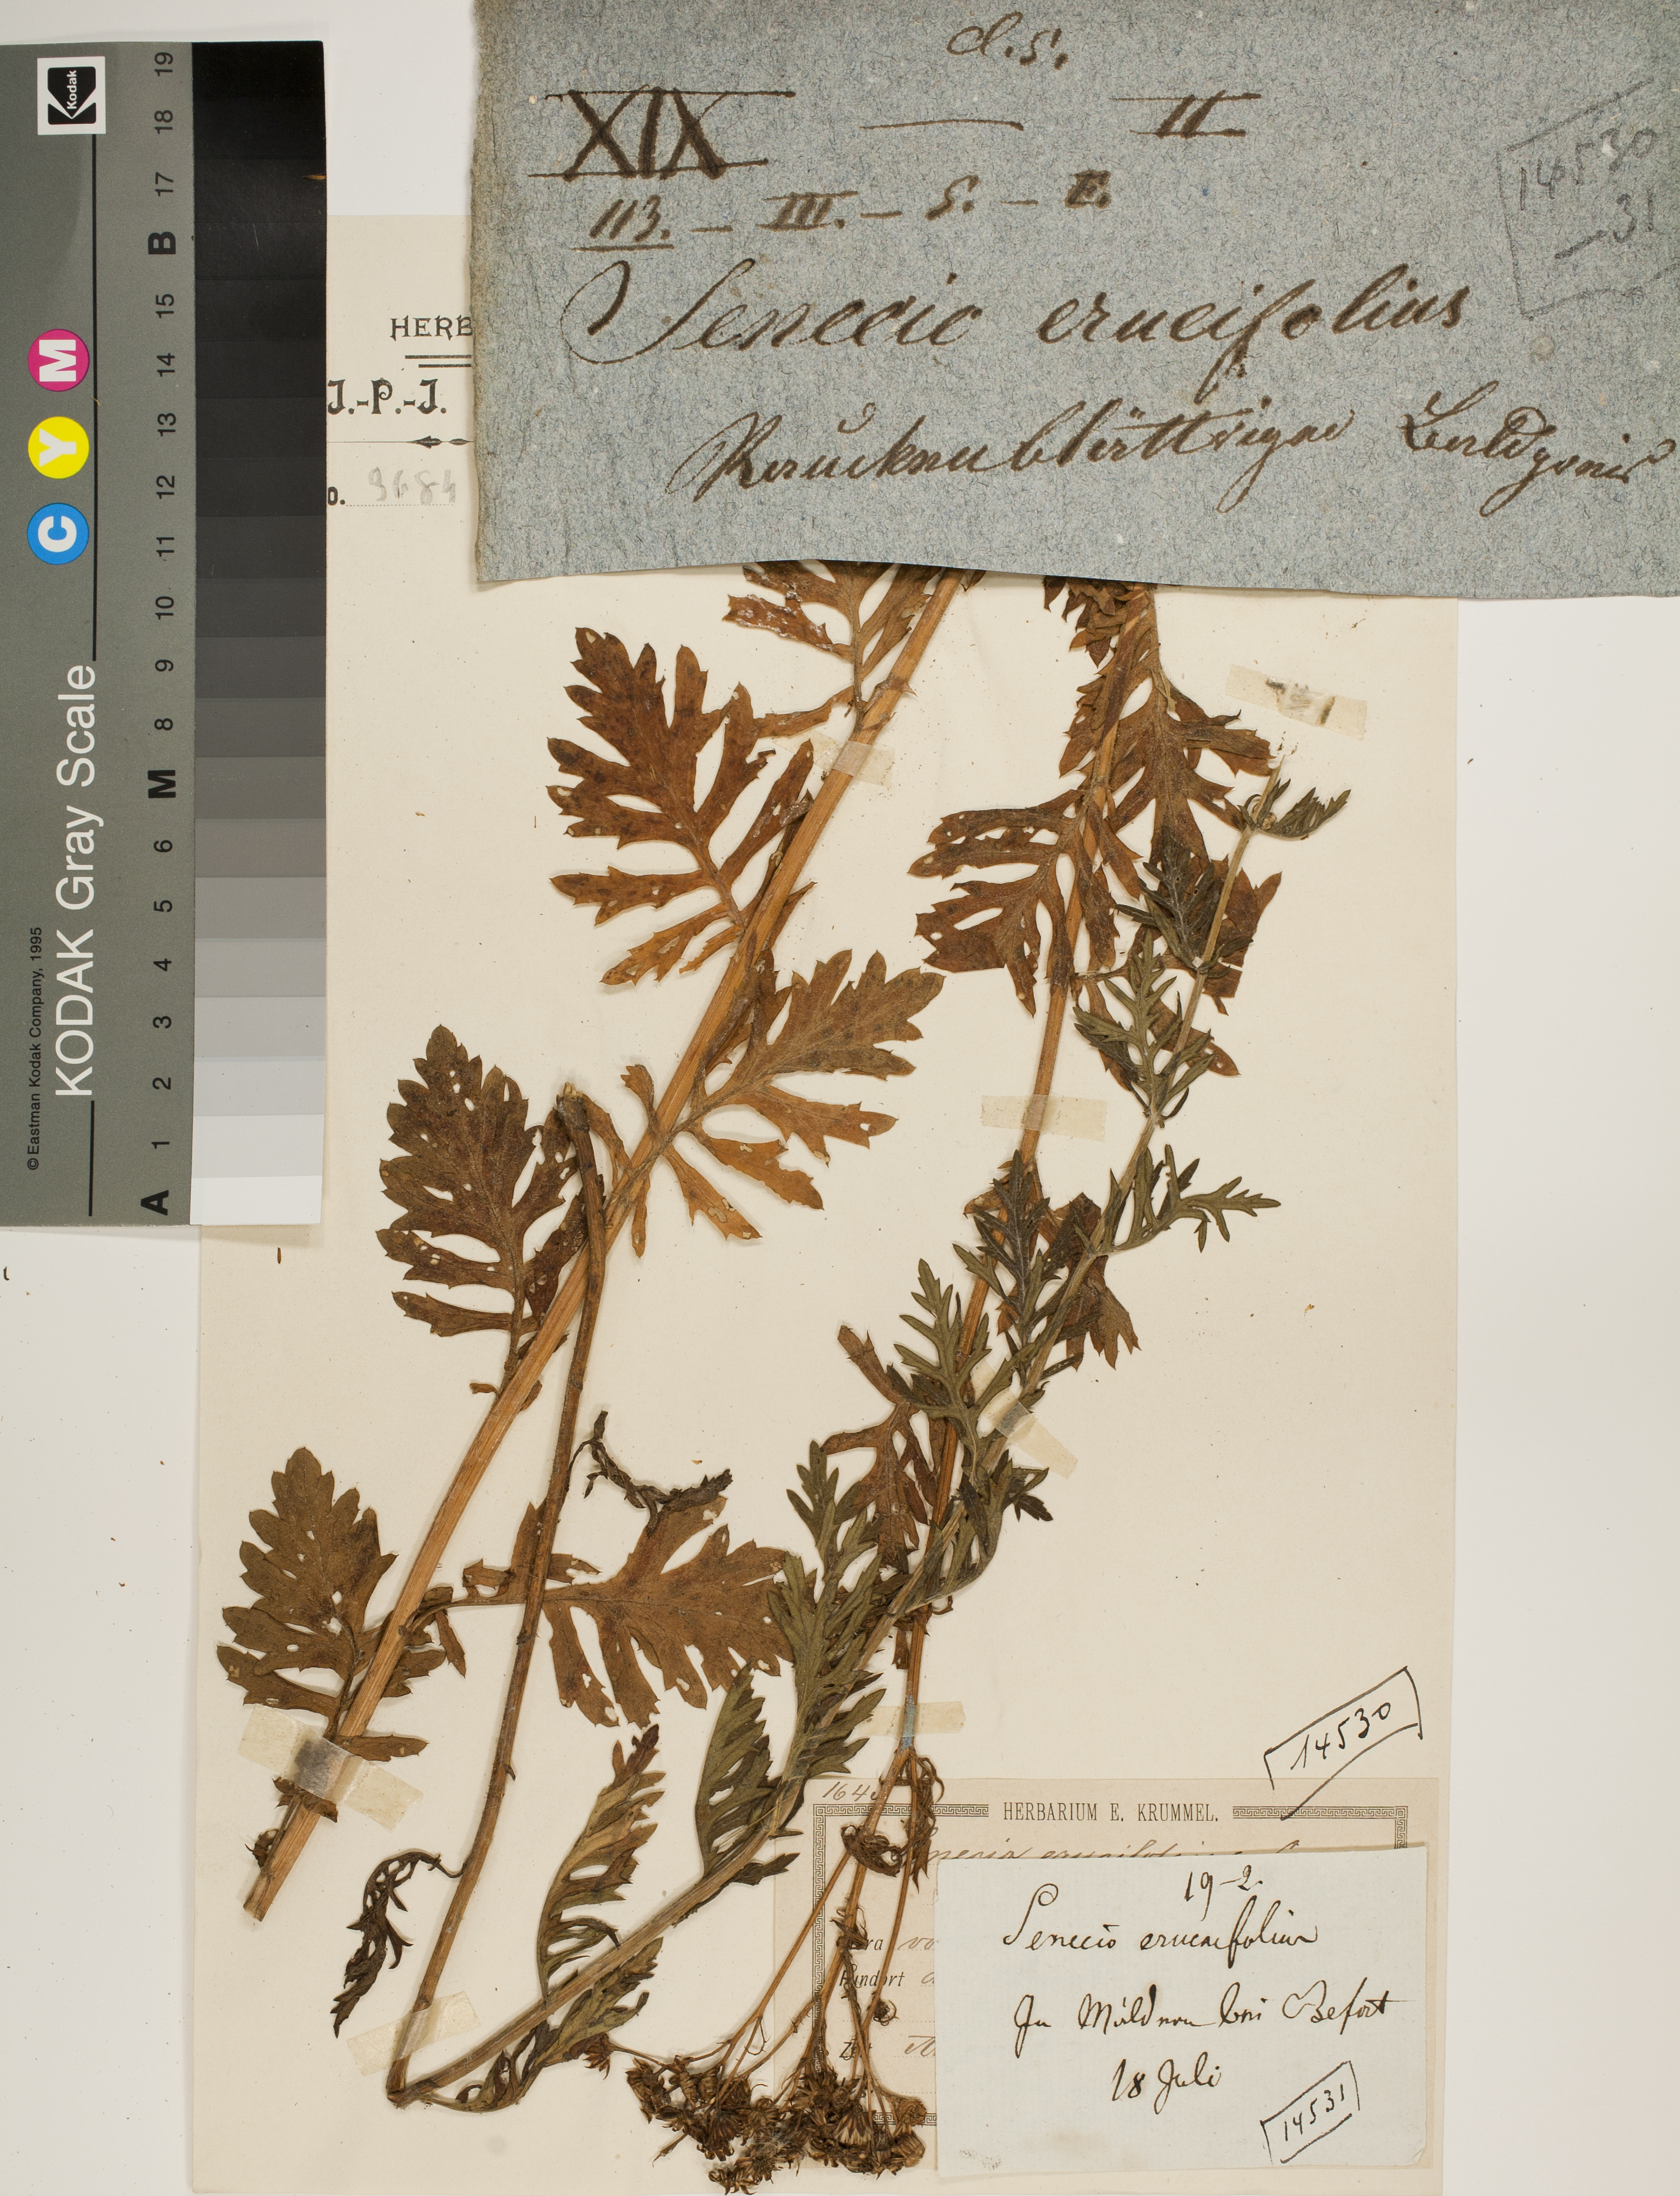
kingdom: Plantae
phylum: Tracheophyta
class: Magnoliopsida
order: Asterales
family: Asteraceae
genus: Jacobaea
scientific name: Jacobaea erucifolia
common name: Hoary ragwort
